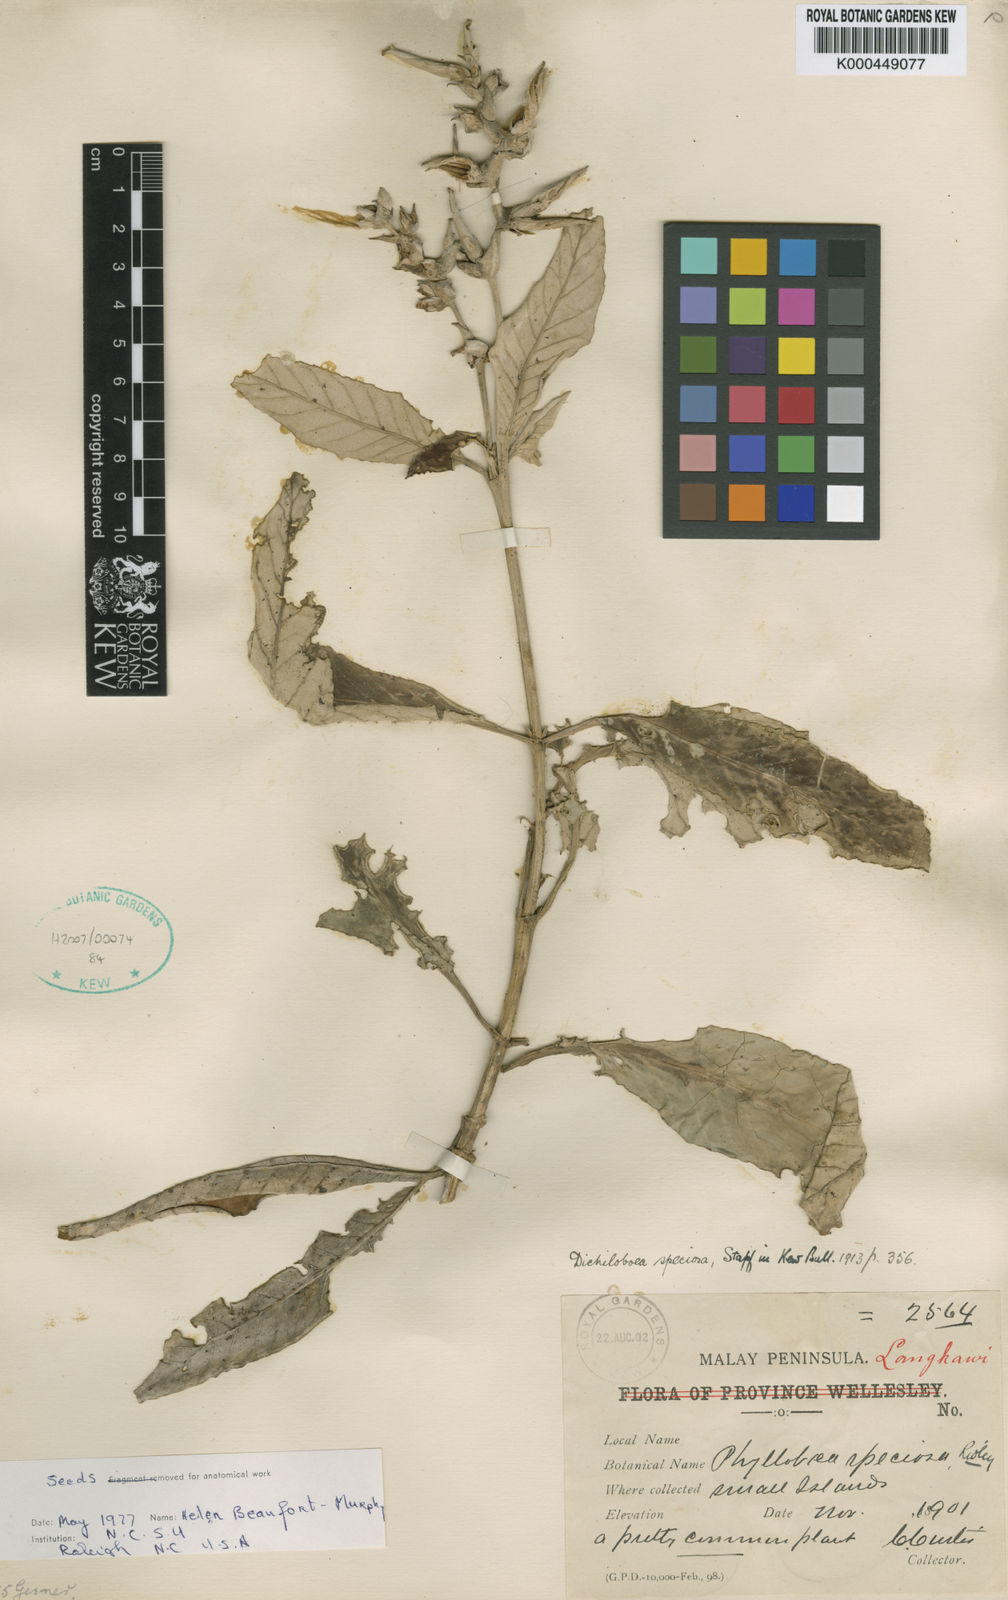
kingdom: Plantae
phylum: Tracheophyta
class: Magnoliopsida
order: Lamiales
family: Gesneriaceae
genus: Paraboea
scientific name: Paraboea barnettiae
